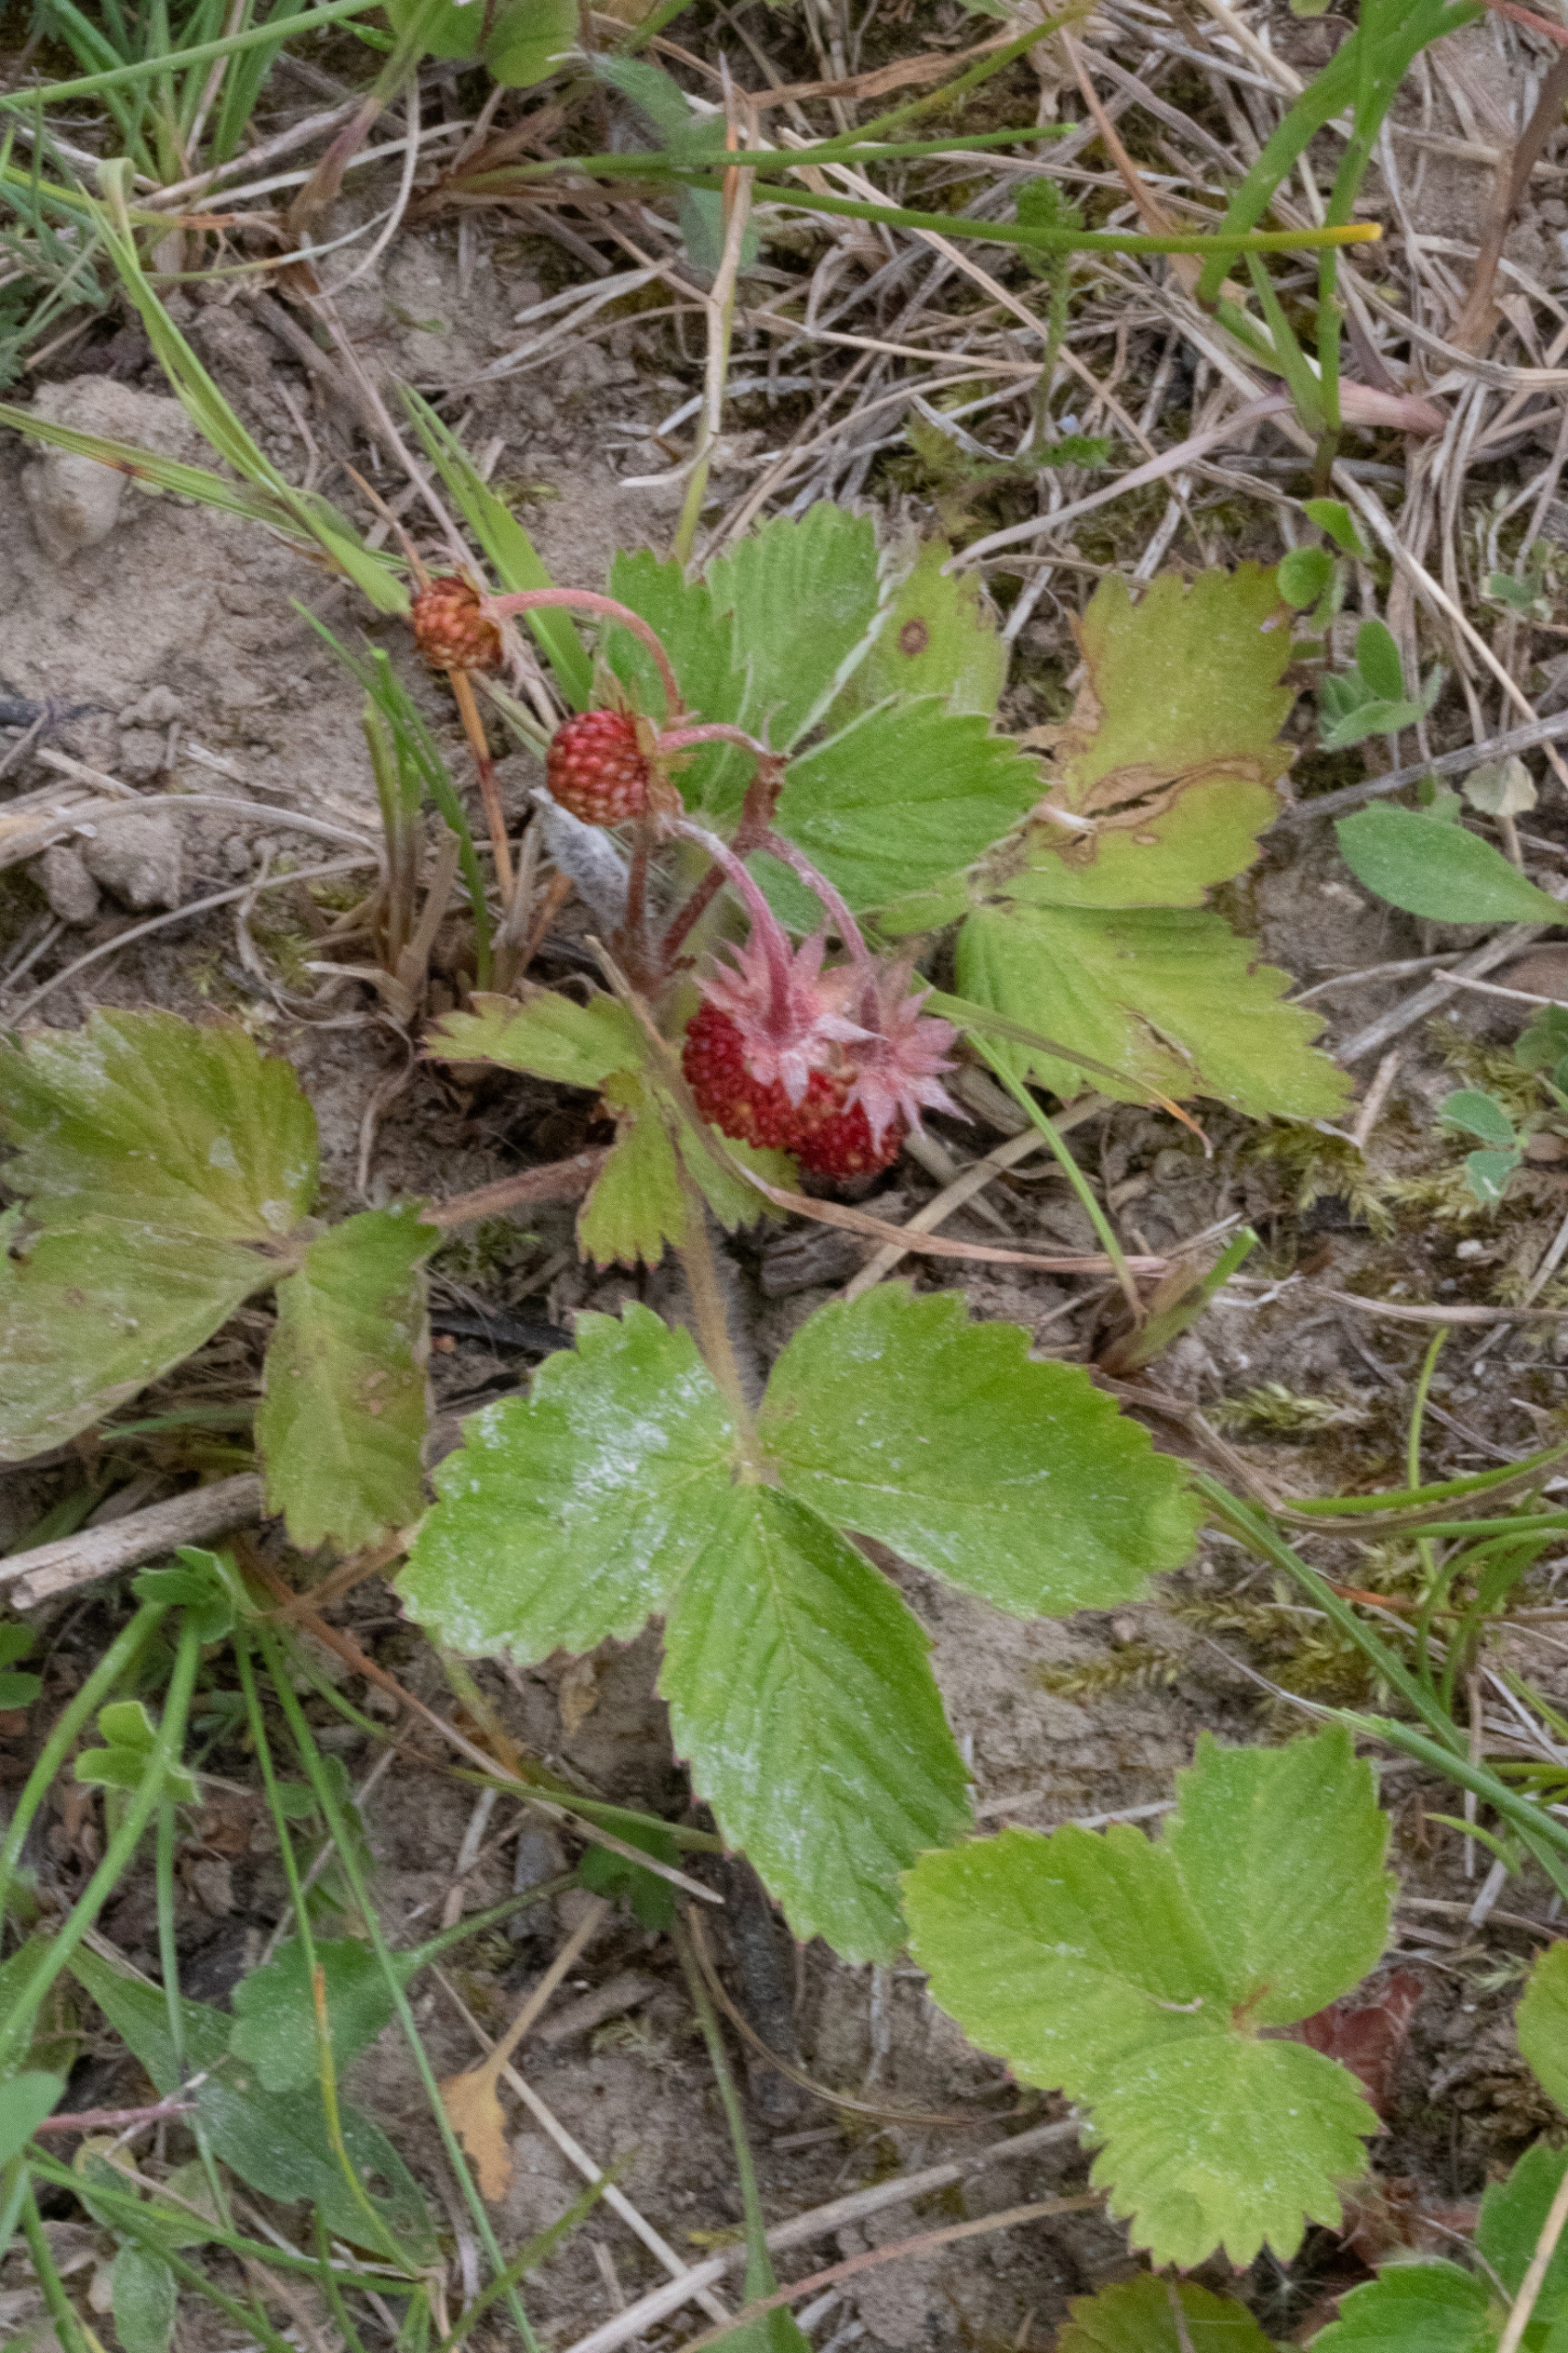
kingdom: Plantae
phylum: Tracheophyta
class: Magnoliopsida
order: Rosales
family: Rosaceae
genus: Fragaria
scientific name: Fragaria vesca
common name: Skov-jordbær
